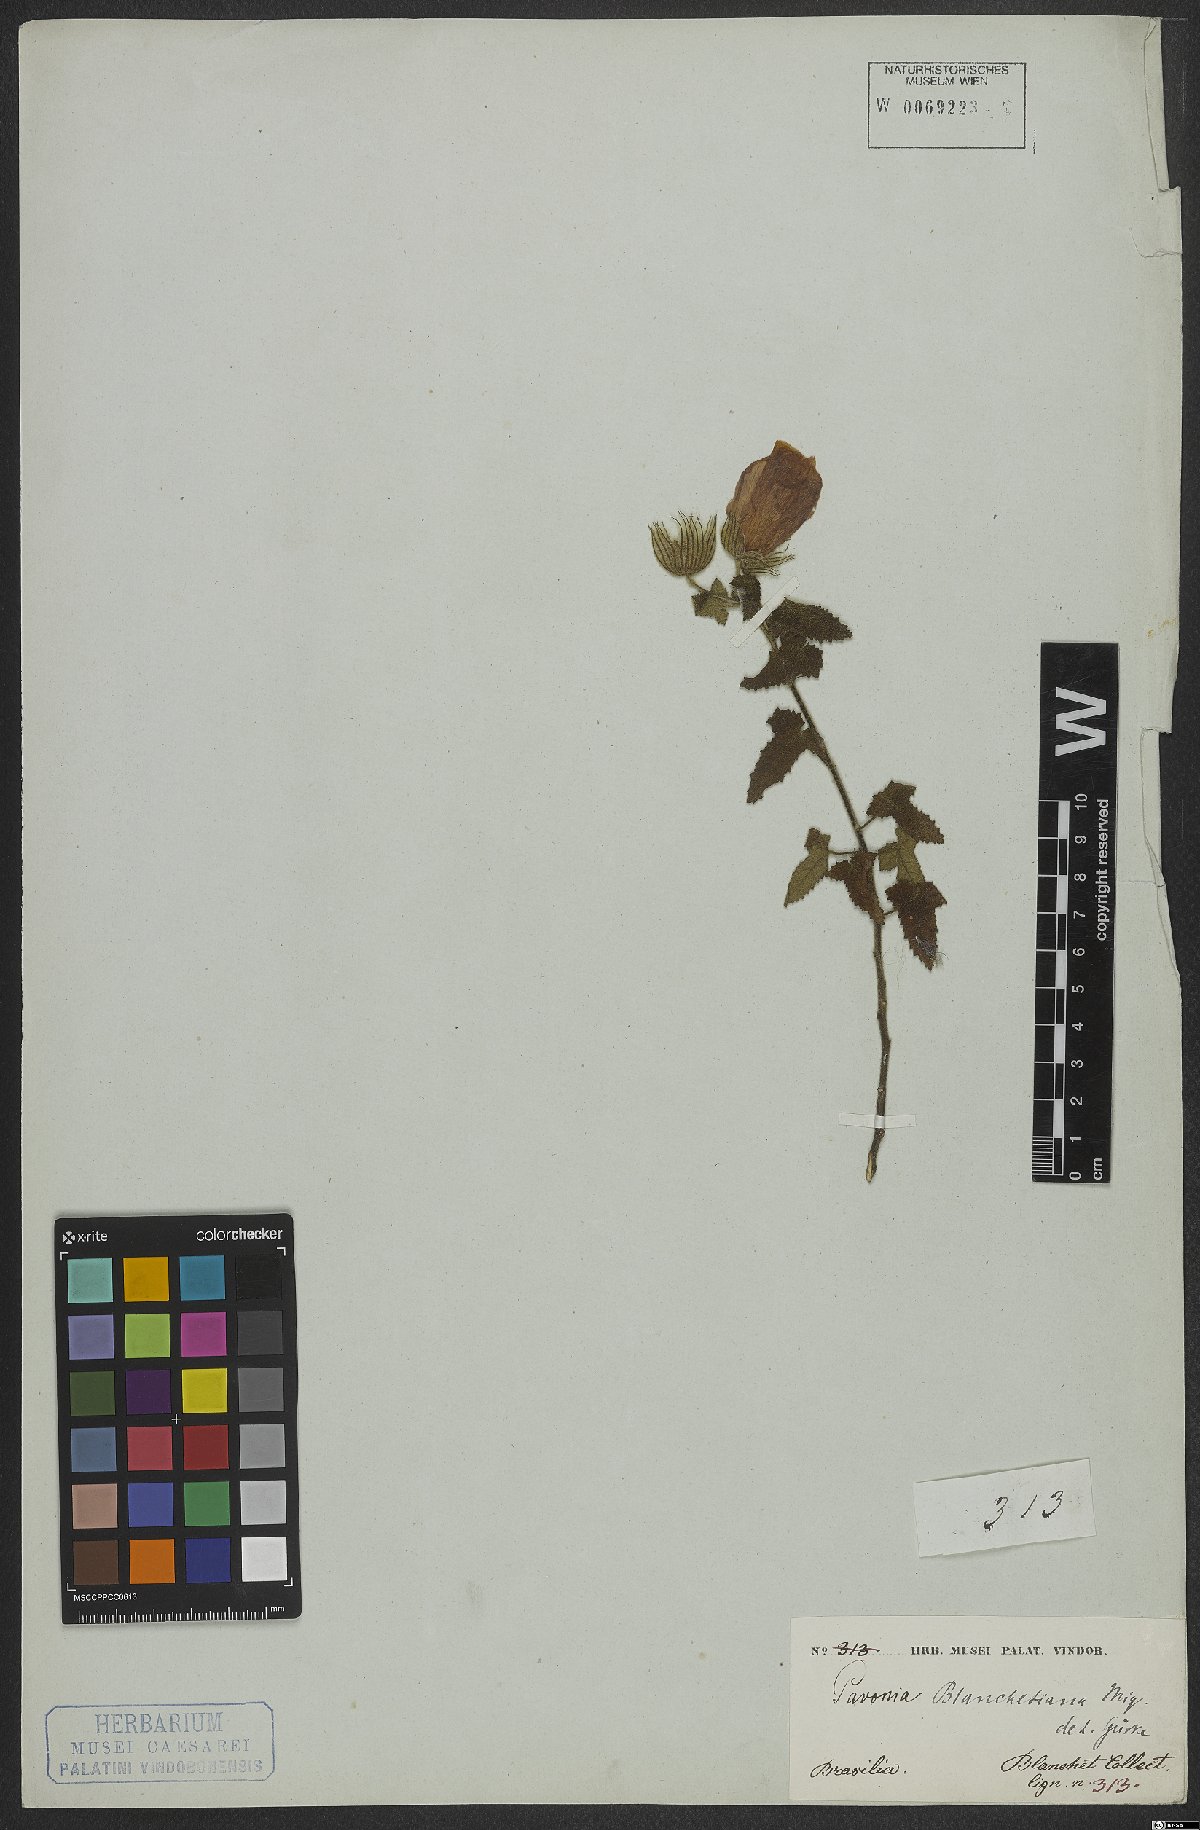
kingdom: Plantae
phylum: Tracheophyta
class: Magnoliopsida
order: Malvales
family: Malvaceae
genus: Pavonia
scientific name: Pavonia blanchetiana
